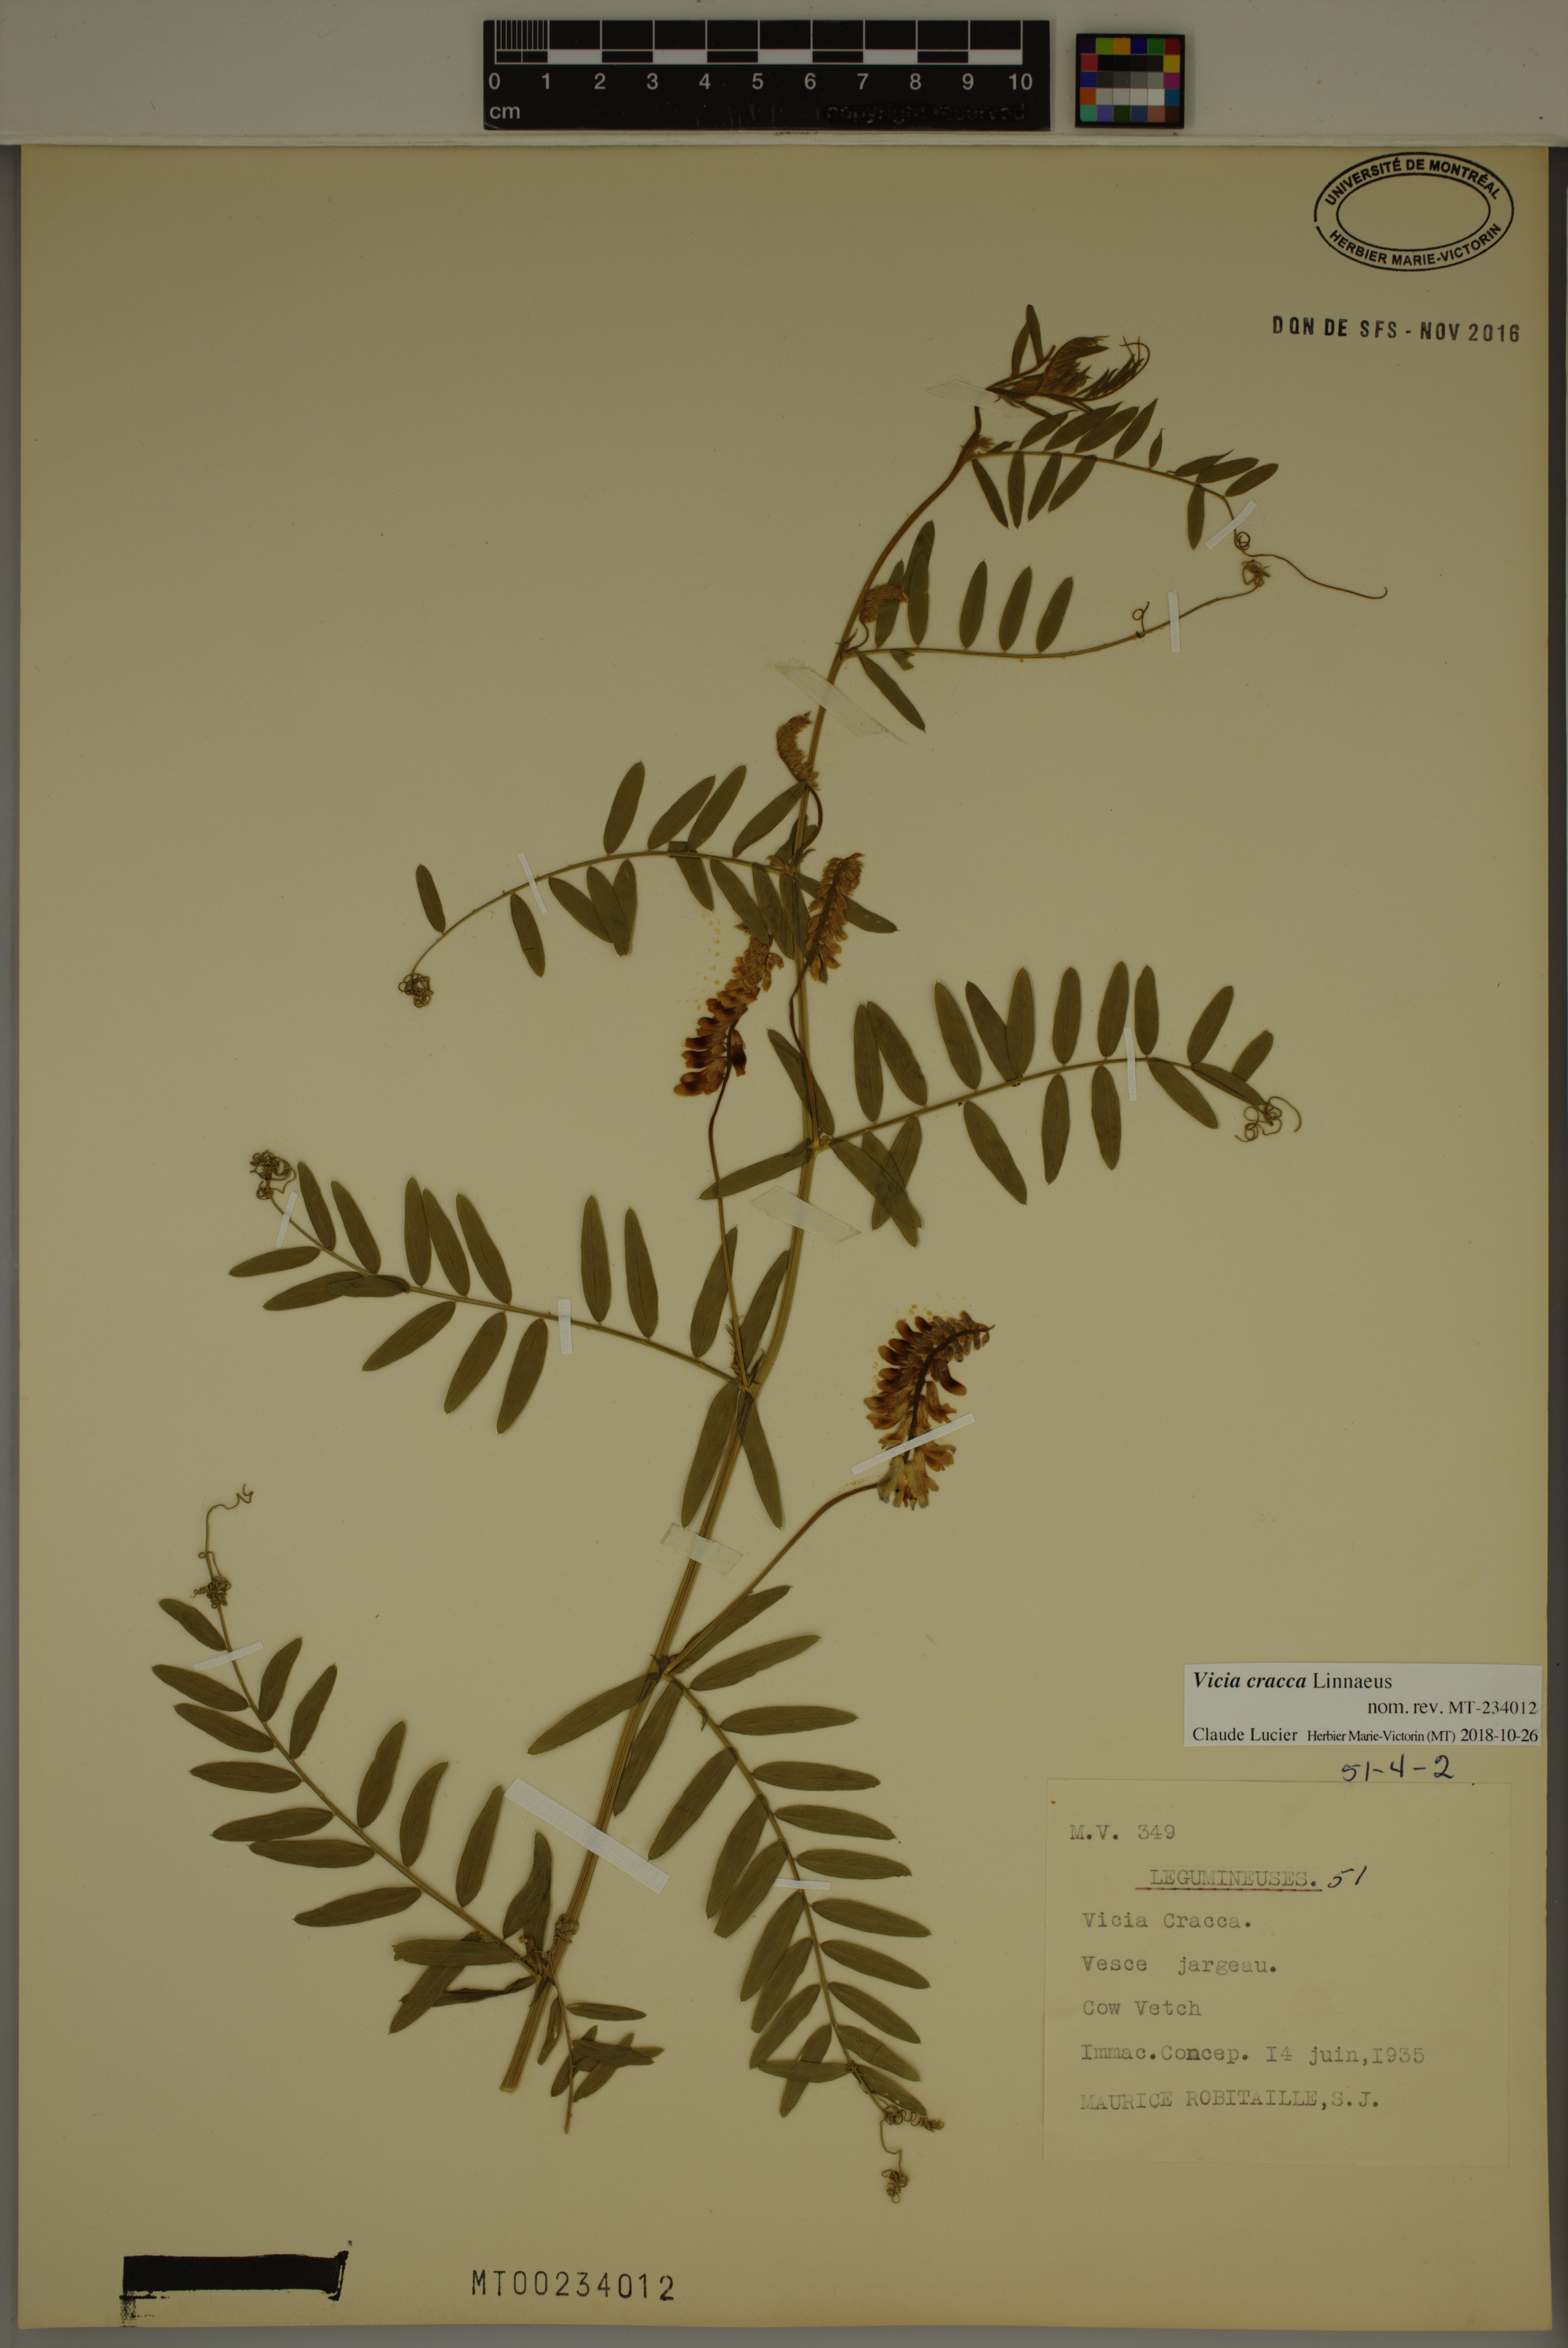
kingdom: Plantae
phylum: Tracheophyta
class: Magnoliopsida
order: Fabales
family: Fabaceae
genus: Vicia
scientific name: Vicia cracca
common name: Bird vetch
